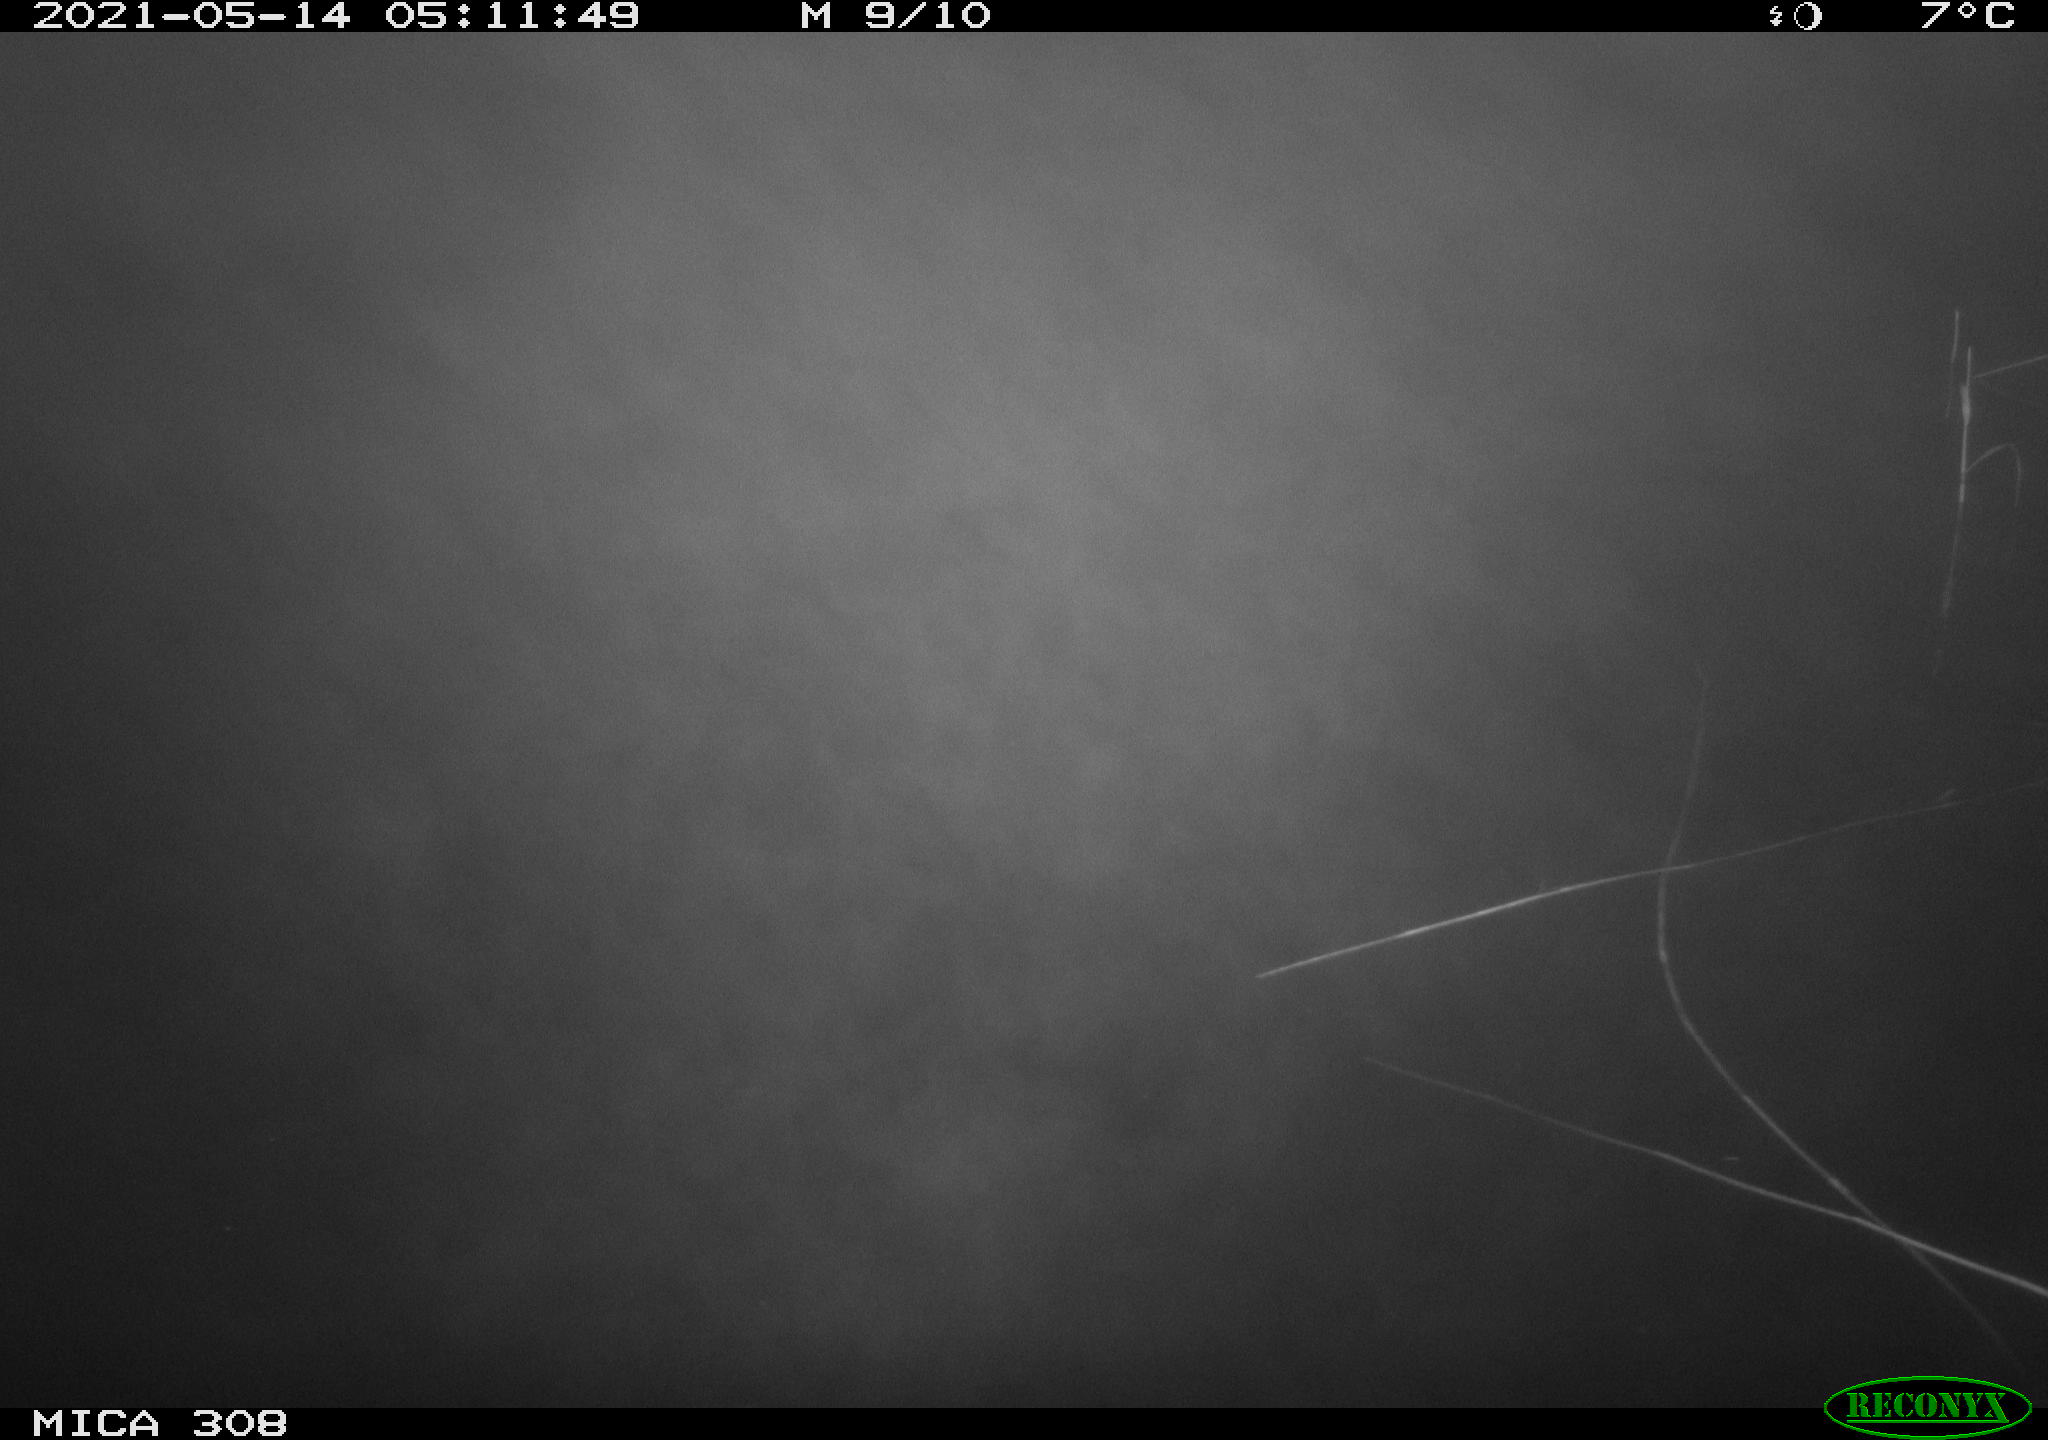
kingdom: Animalia
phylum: Chordata
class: Aves
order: Anseriformes
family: Anatidae
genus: Anas
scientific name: Anas platyrhynchos
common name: Mallard
